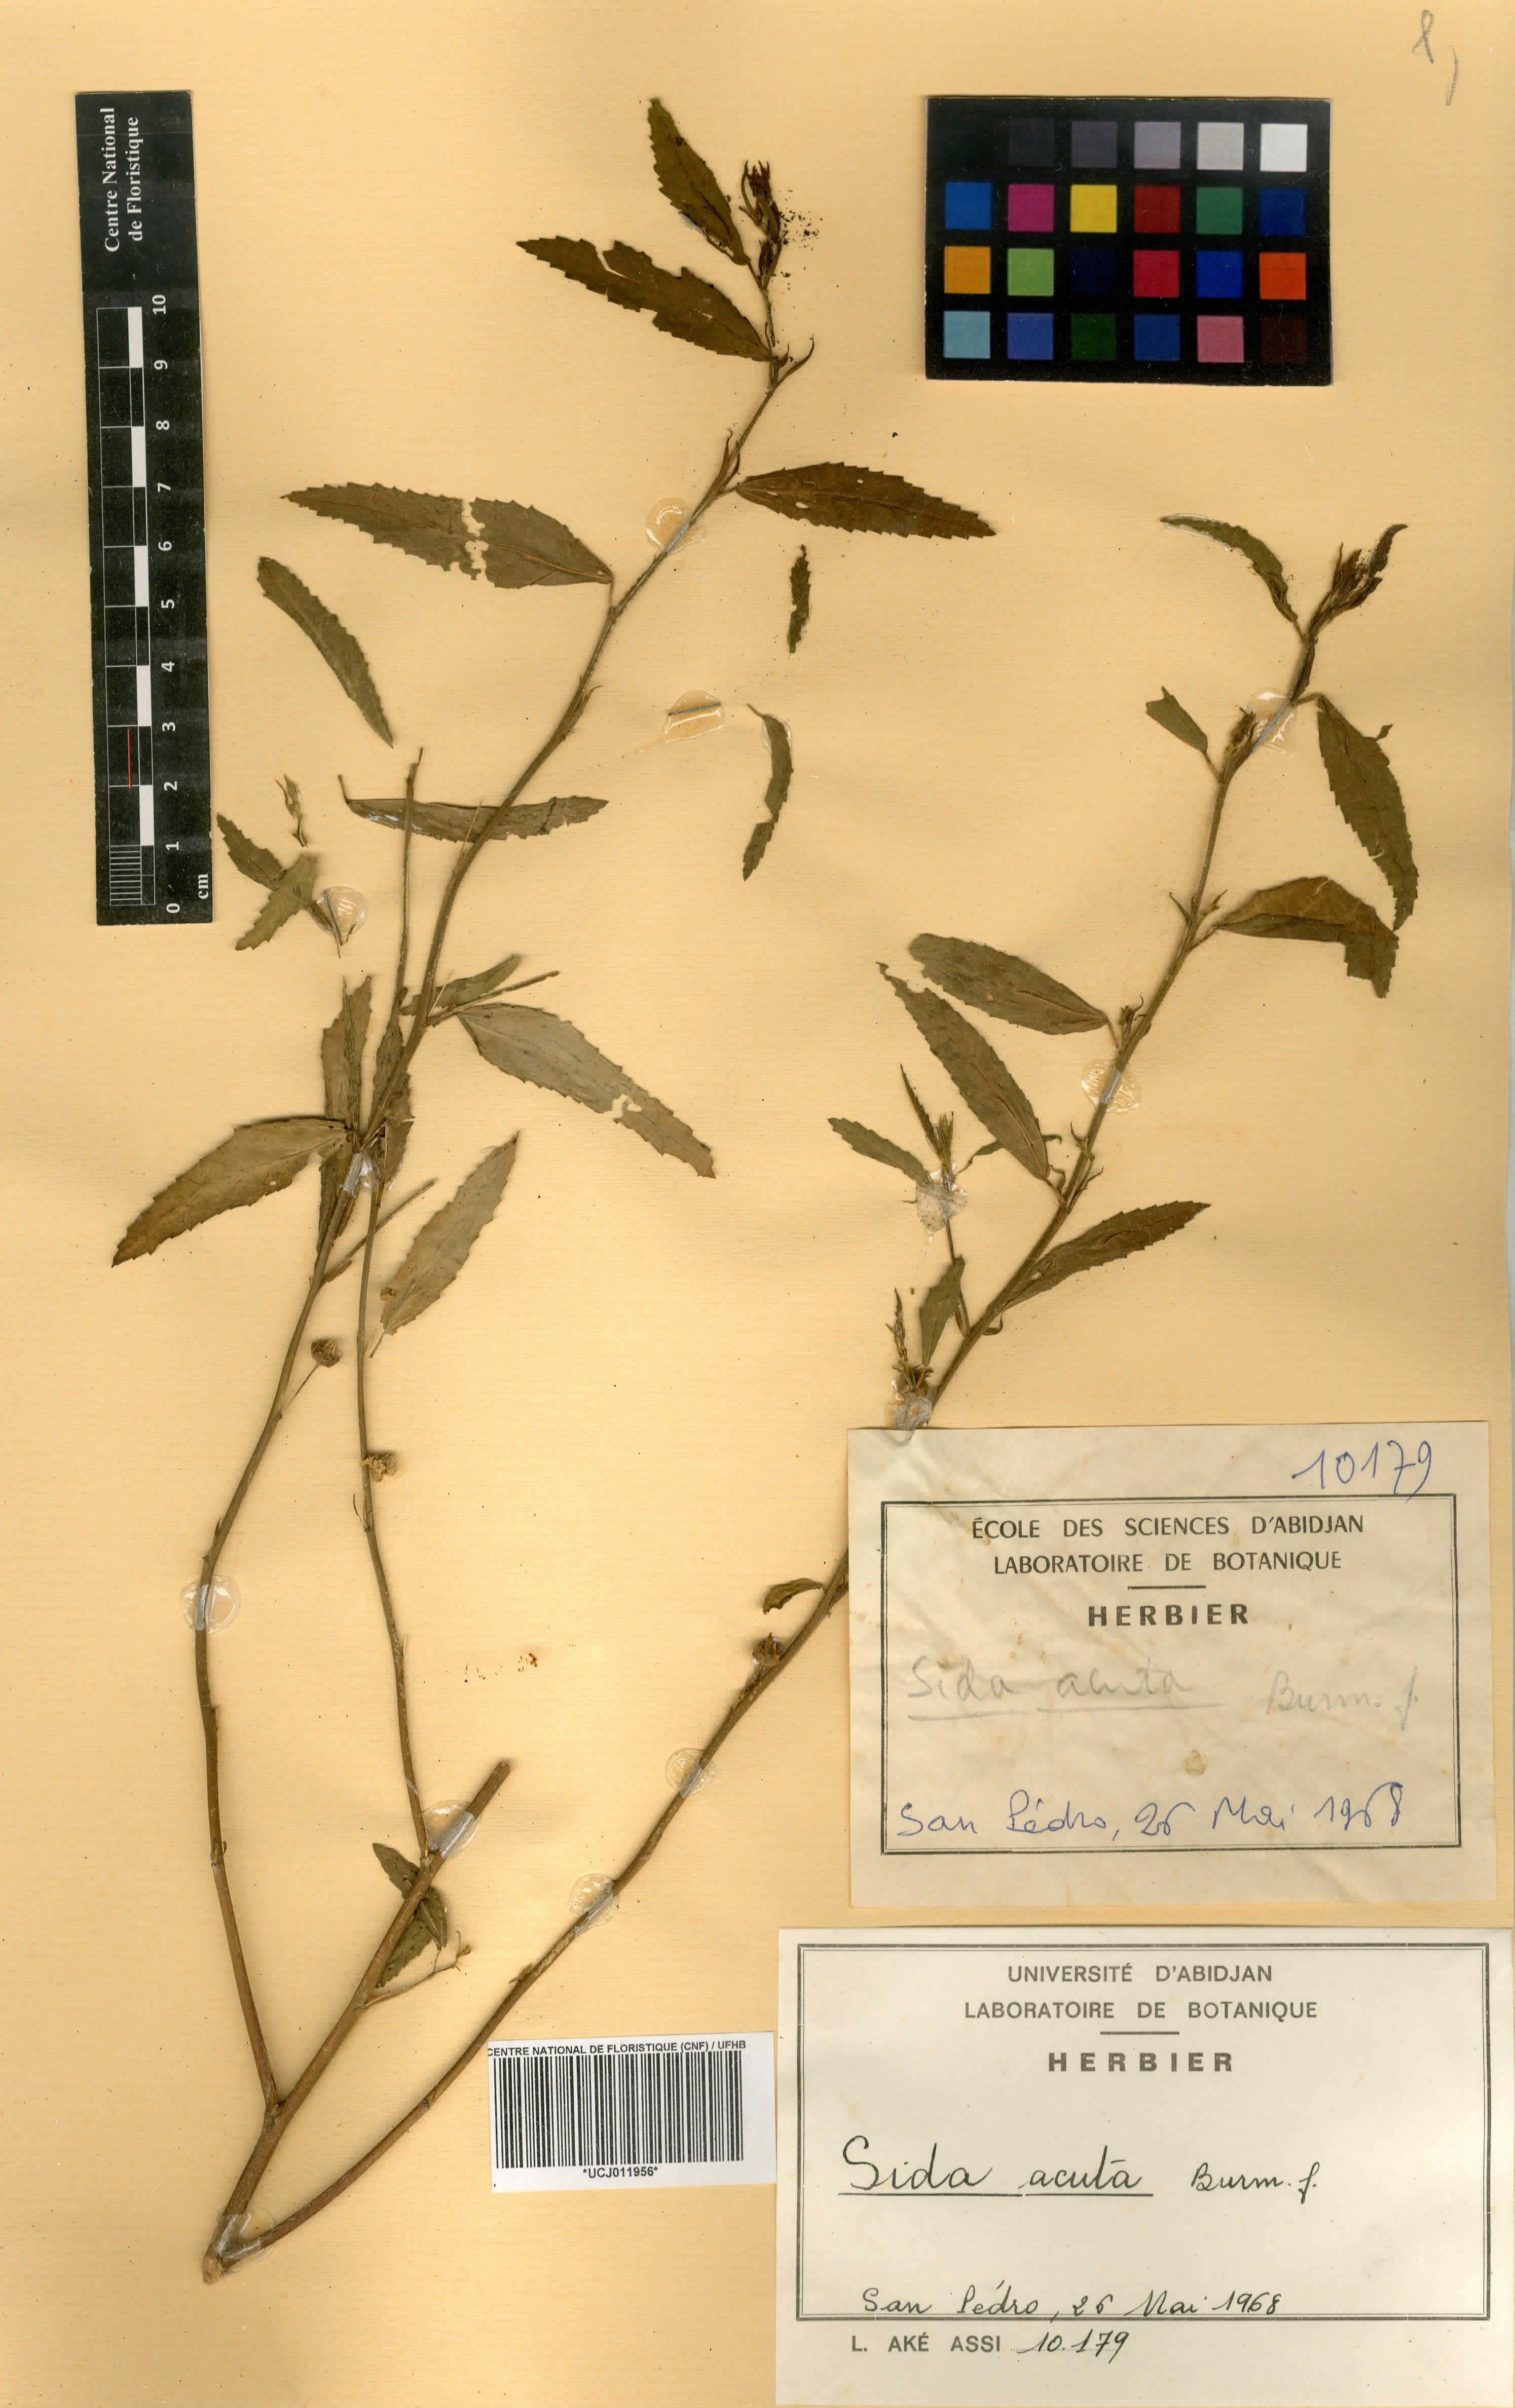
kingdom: Plantae
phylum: Tracheophyta
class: Magnoliopsida
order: Malvales
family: Malvaceae
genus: Sida
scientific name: Sida acuta
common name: Common wireweed
